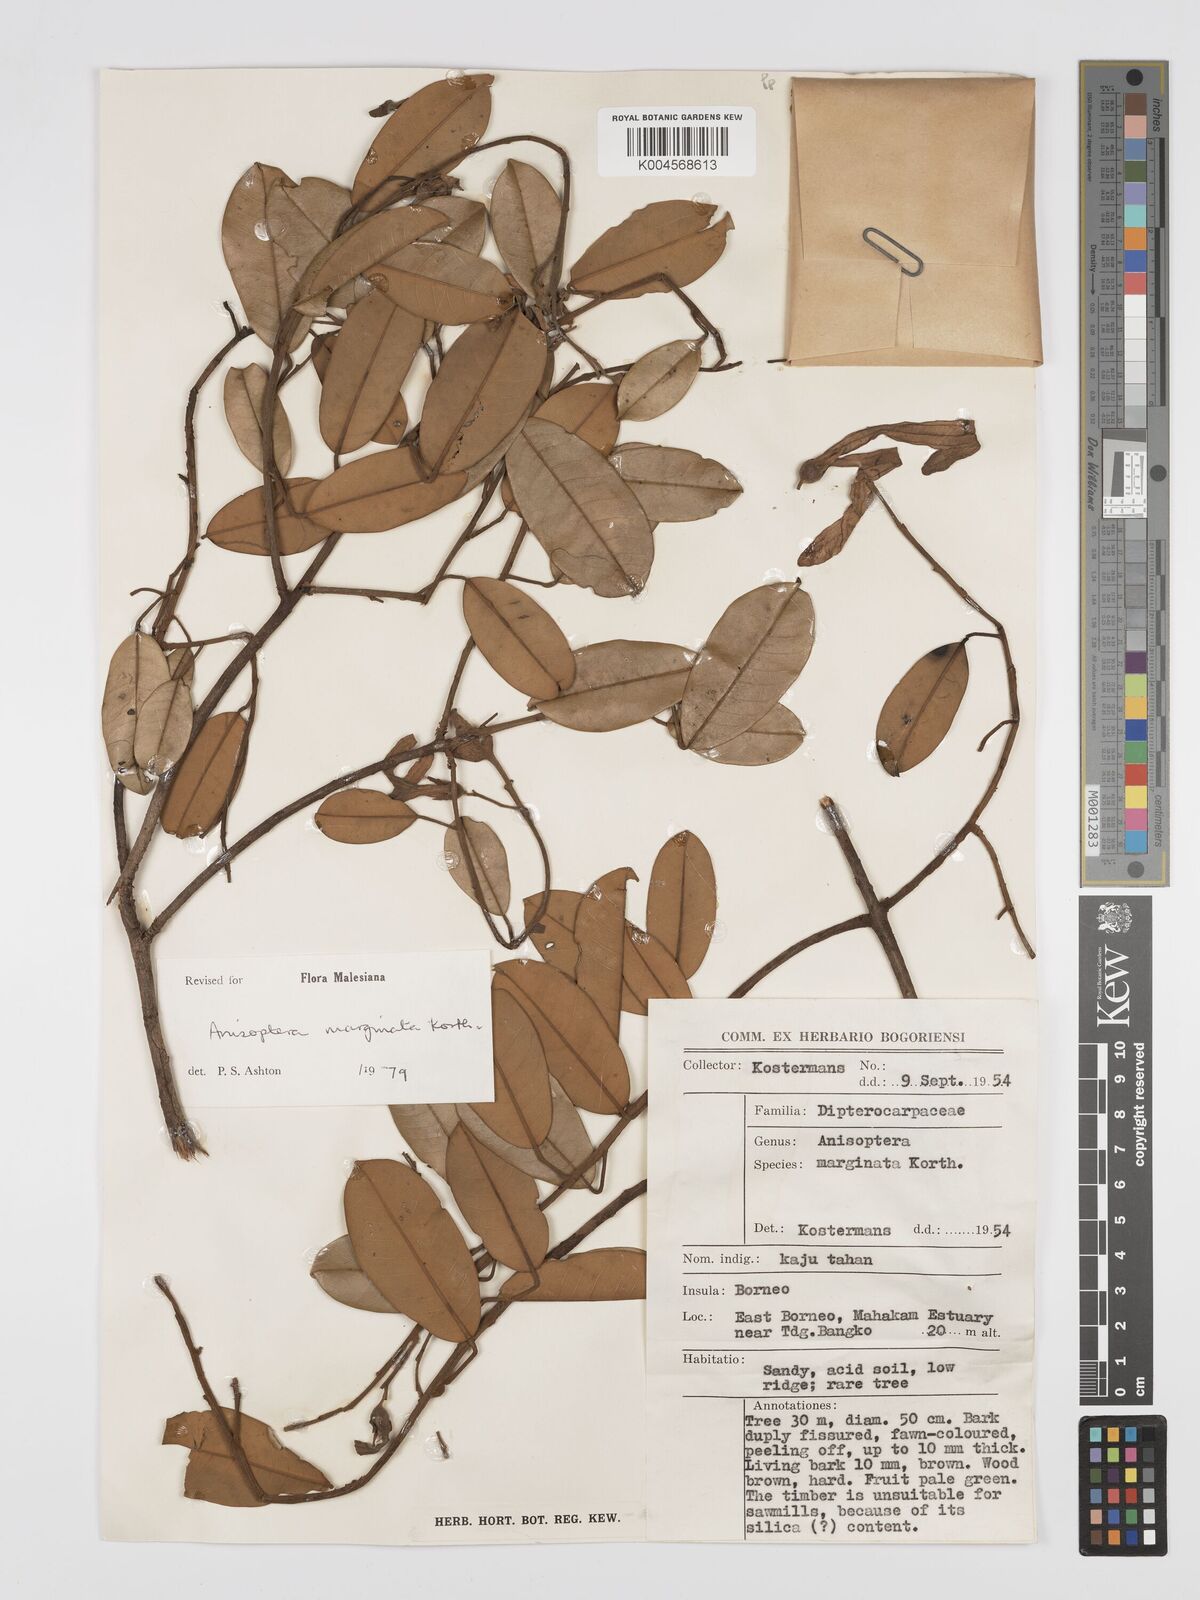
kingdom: Plantae
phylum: Tracheophyta
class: Magnoliopsida
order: Malvales
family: Dipterocarpaceae
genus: Anisoptera
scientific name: Anisoptera marginata
